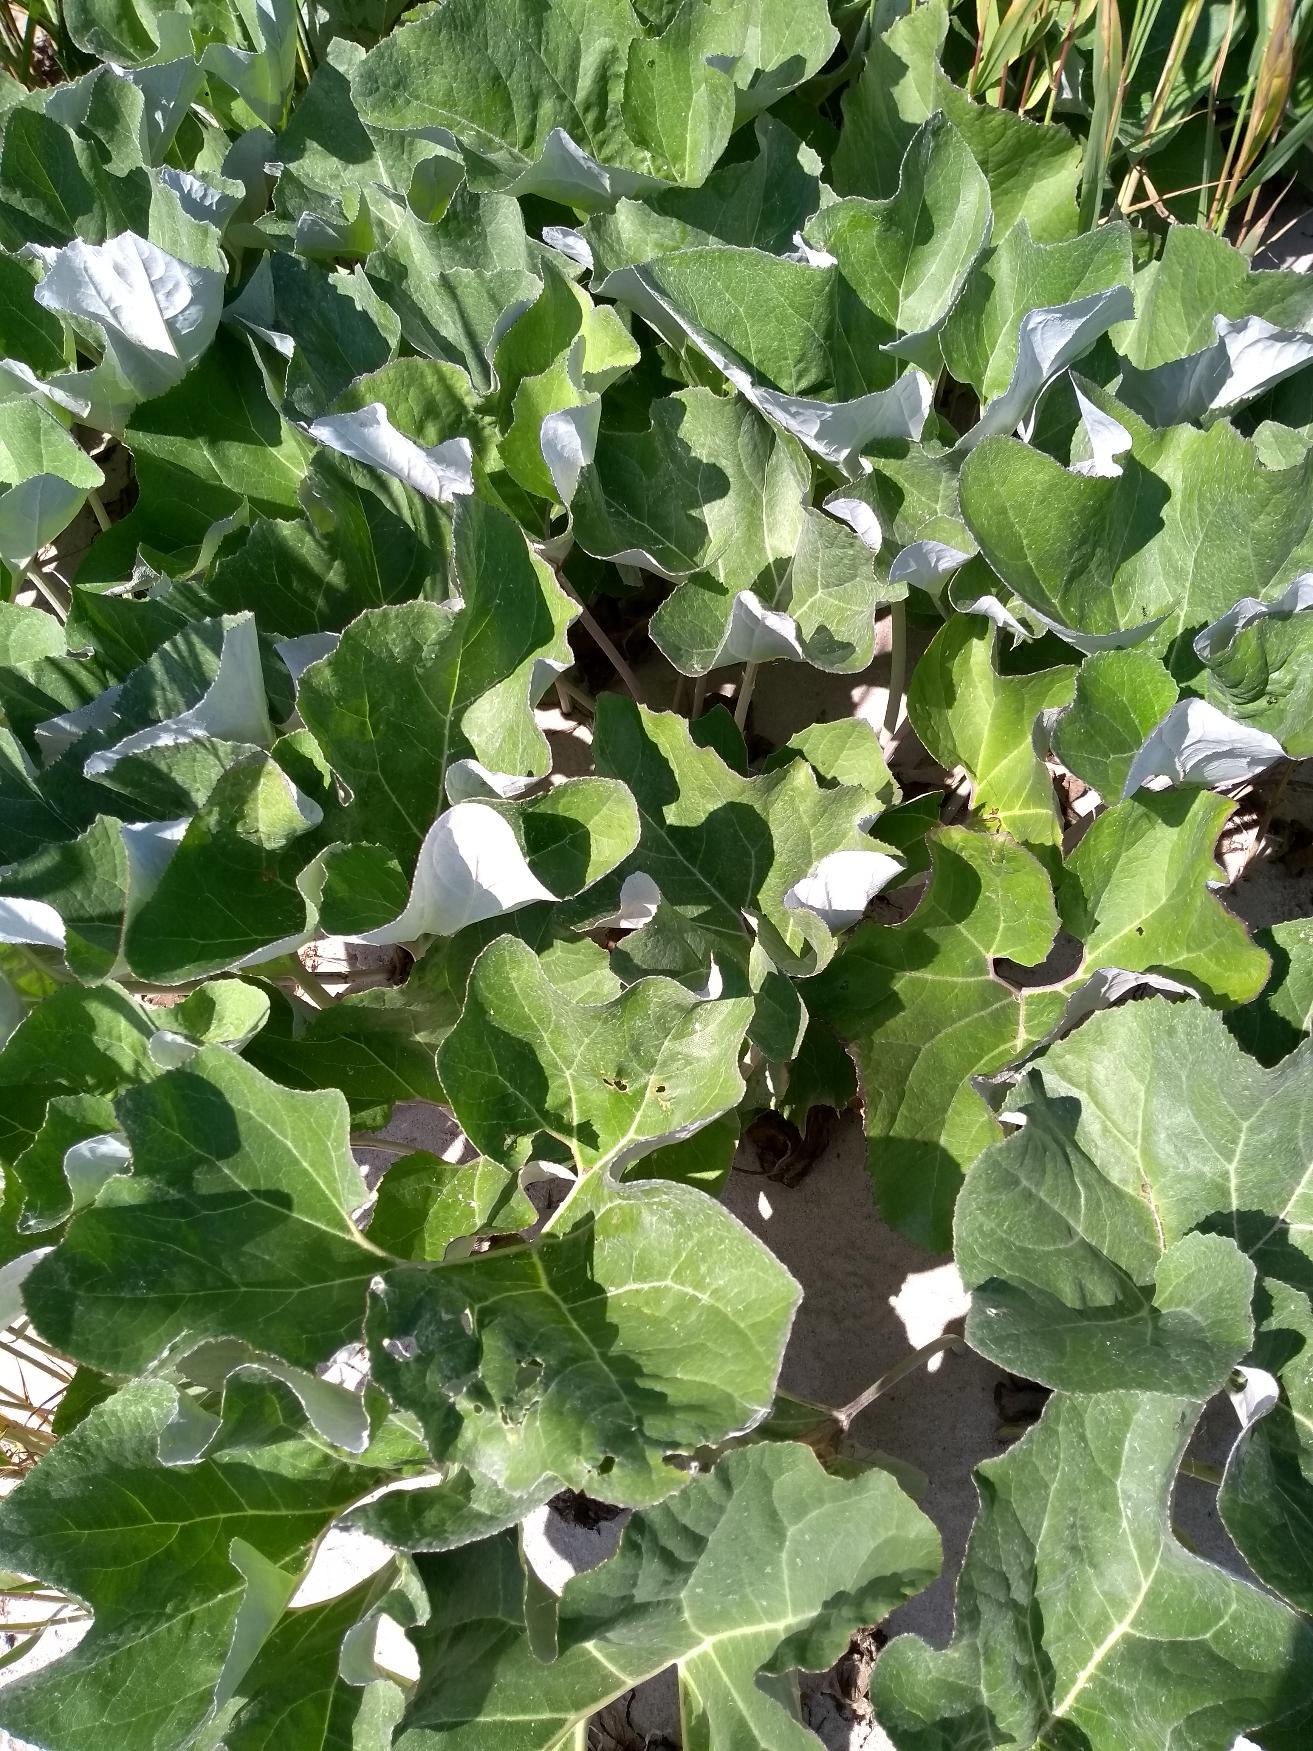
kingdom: Plantae
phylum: Tracheophyta
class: Magnoliopsida
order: Asterales
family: Asteraceae
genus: Petasites
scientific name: Petasites spurius
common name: Filtet hestehov
